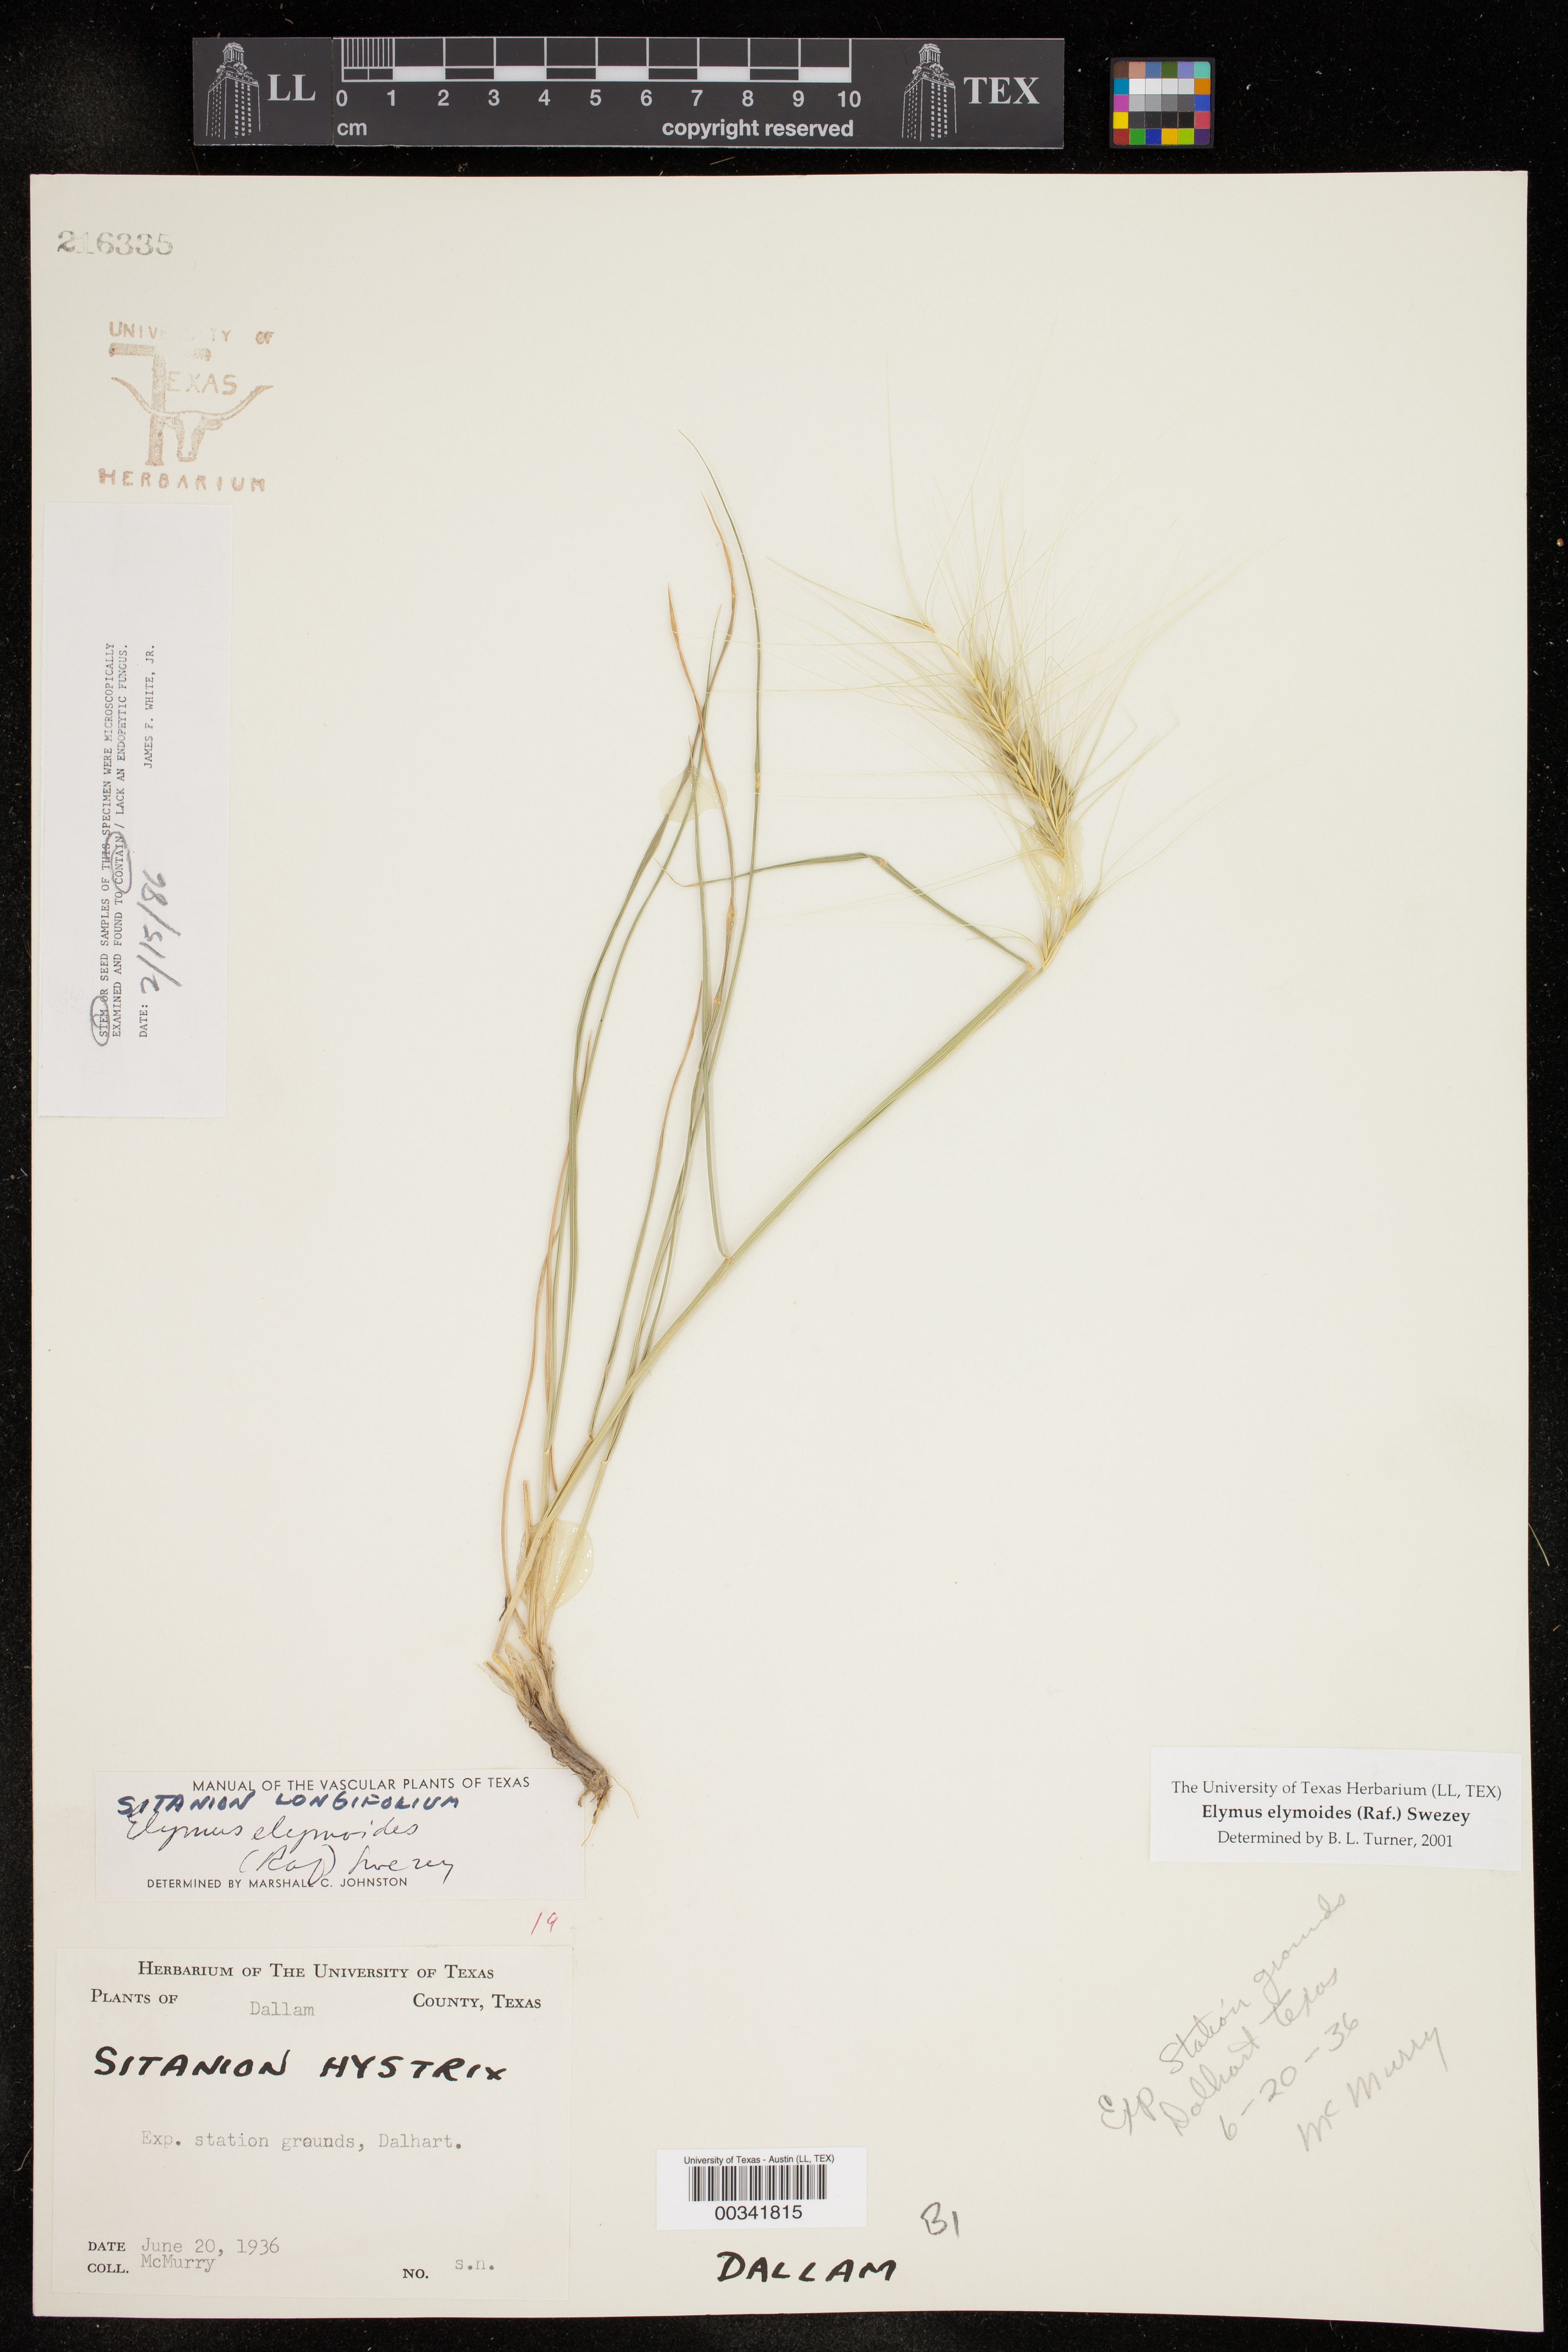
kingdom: Plantae
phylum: Tracheophyta
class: Liliopsida
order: Poales
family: Poaceae
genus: Elymus
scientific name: Elymus elymoides
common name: Bottlebrush squirreltail
